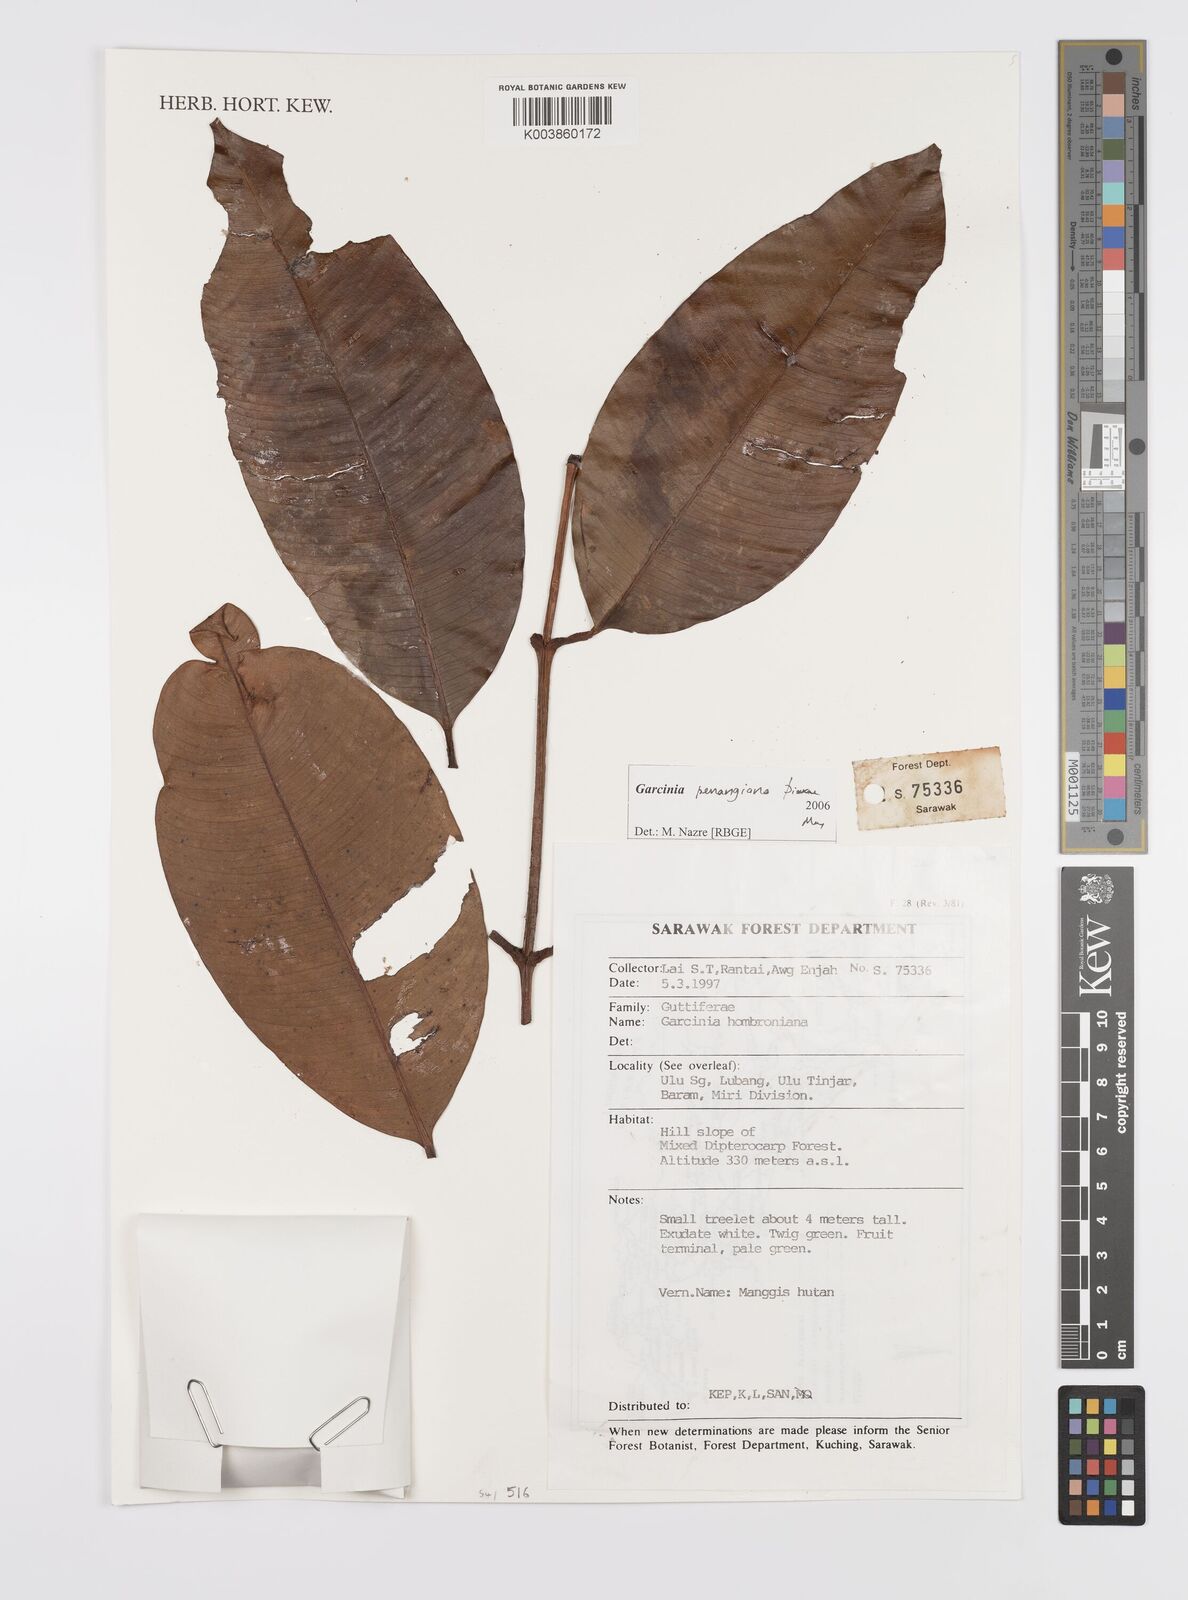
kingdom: Plantae
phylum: Tracheophyta
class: Magnoliopsida
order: Malpighiales
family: Clusiaceae
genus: Garcinia
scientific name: Garcinia penangiana
